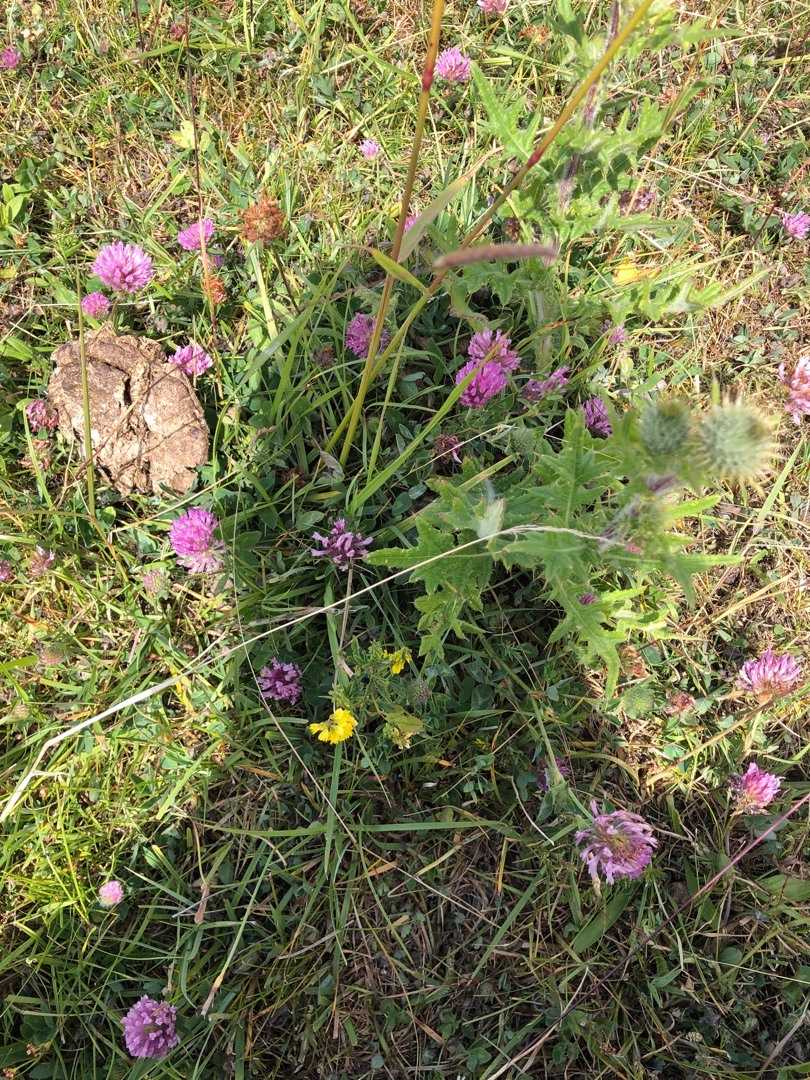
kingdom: Plantae
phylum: Tracheophyta
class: Magnoliopsida
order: Fabales
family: Fabaceae
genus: Melilotus
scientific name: Melilotus altissimus
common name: Høj stenkløver
